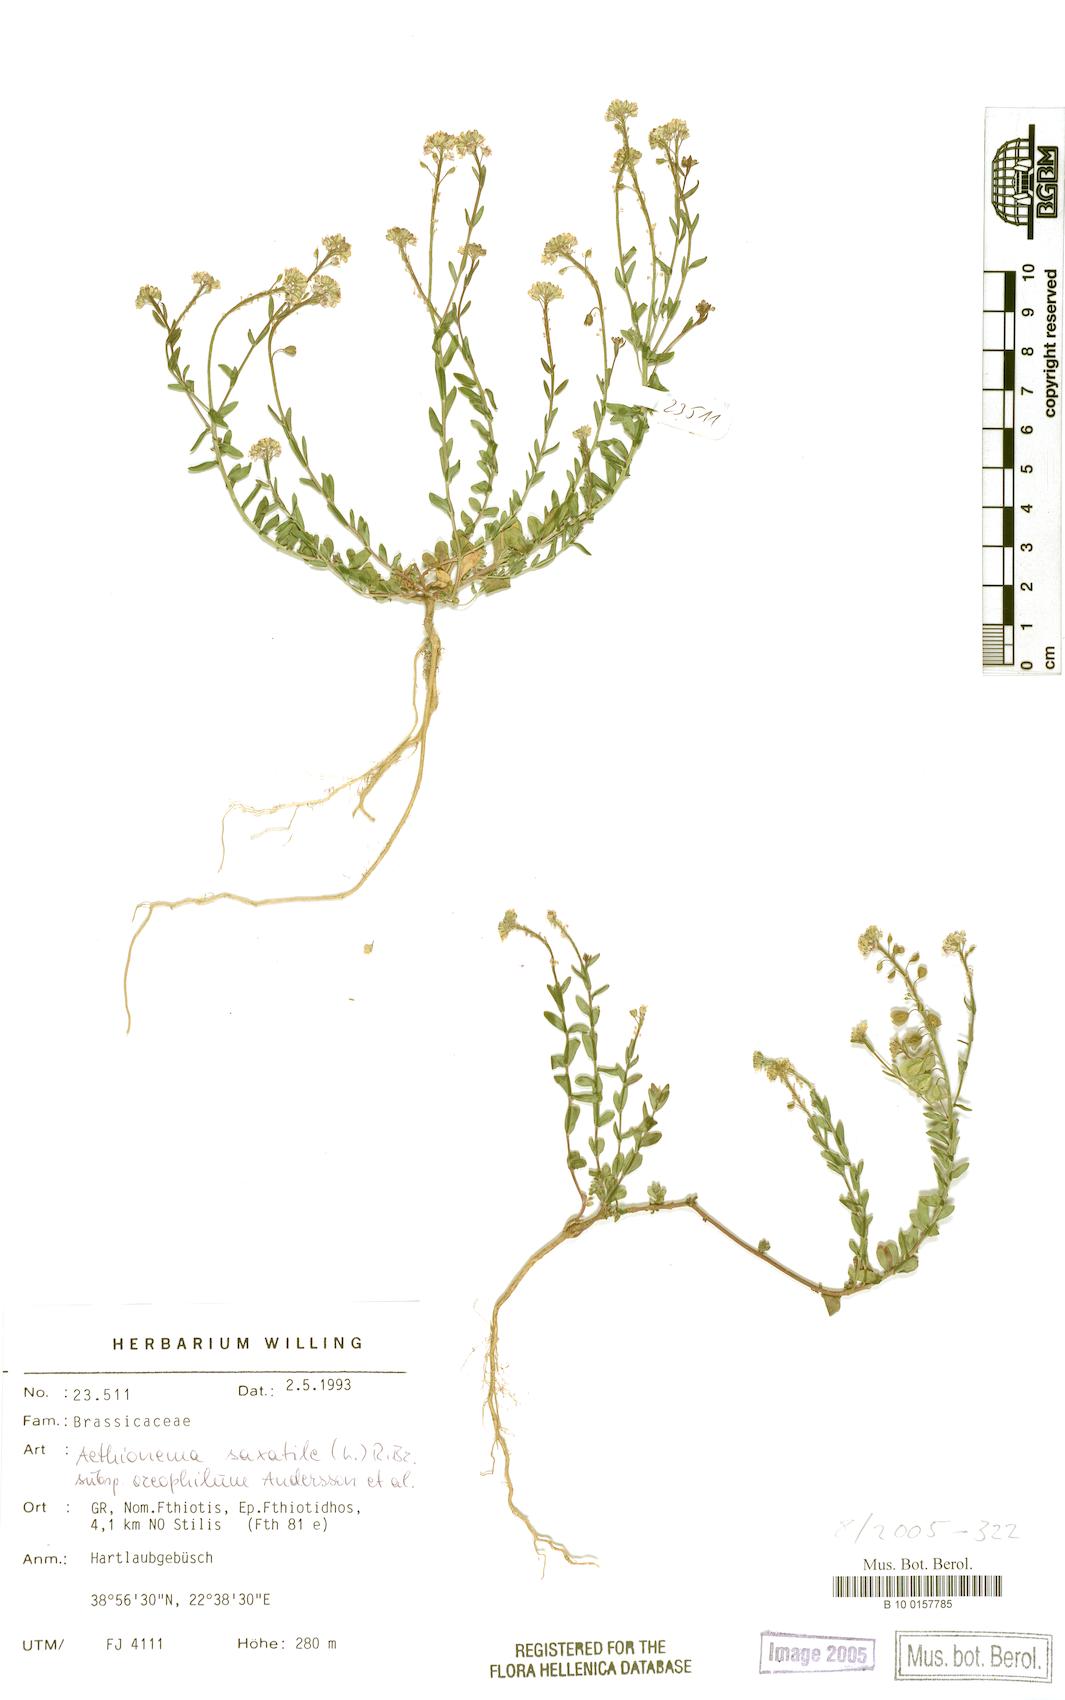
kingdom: Plantae
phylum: Tracheophyta
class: Magnoliopsida
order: Brassicales
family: Brassicaceae
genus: Aethionema
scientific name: Aethionema saxatile
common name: Burnt candytuft
